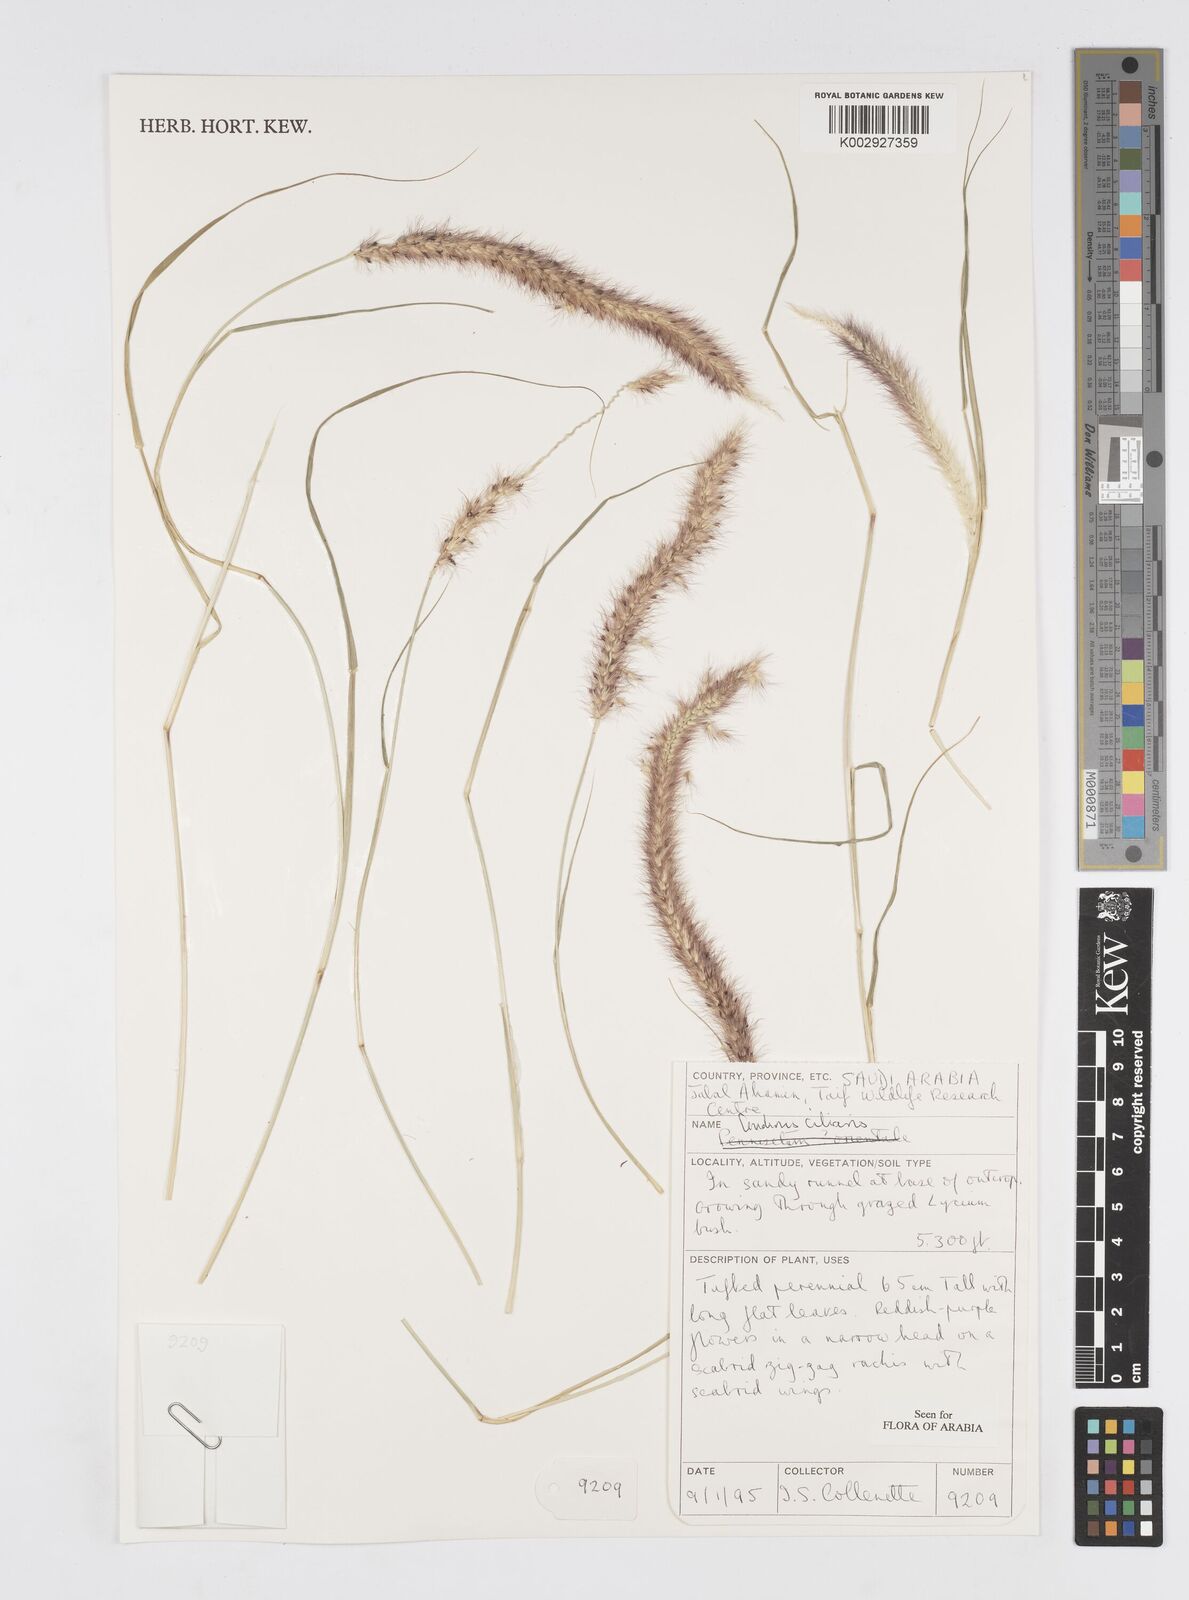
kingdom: Plantae
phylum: Tracheophyta
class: Liliopsida
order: Poales
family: Poaceae
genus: Cenchrus
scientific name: Cenchrus ciliaris
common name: Buffelgrass
